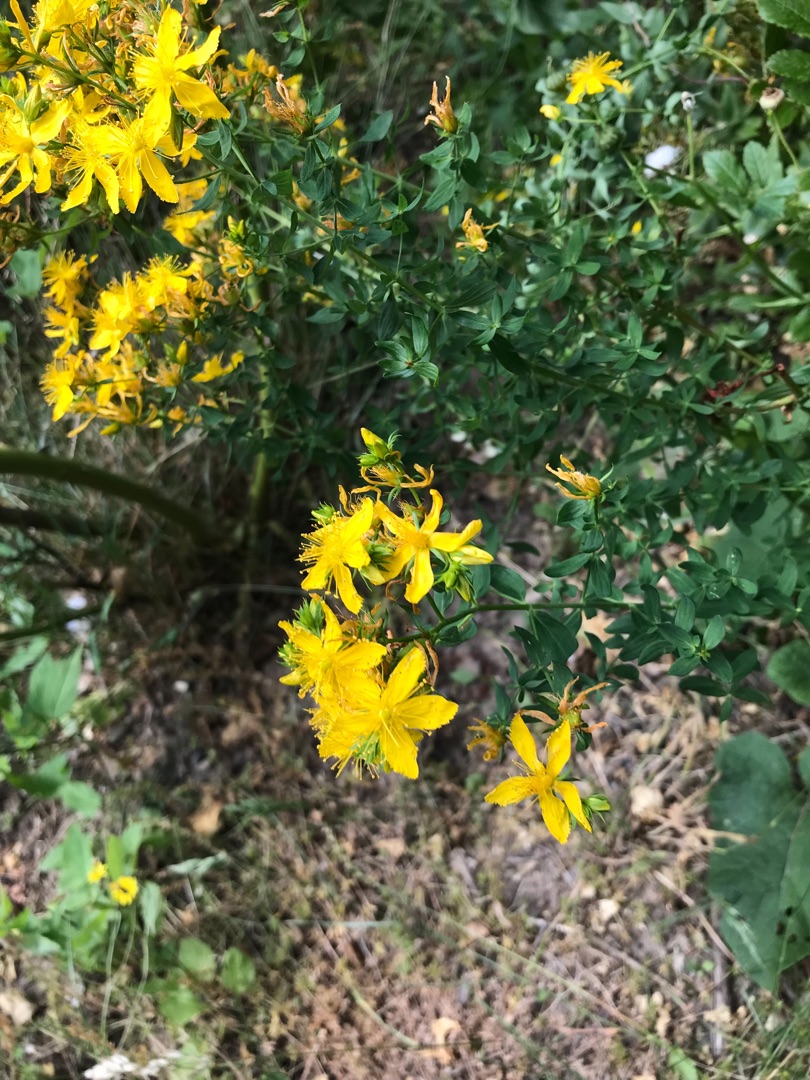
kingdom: Plantae
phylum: Tracheophyta
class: Magnoliopsida
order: Malpighiales
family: Hypericaceae
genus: Hypericum
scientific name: Hypericum perforatum
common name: Prikbladet perikon
